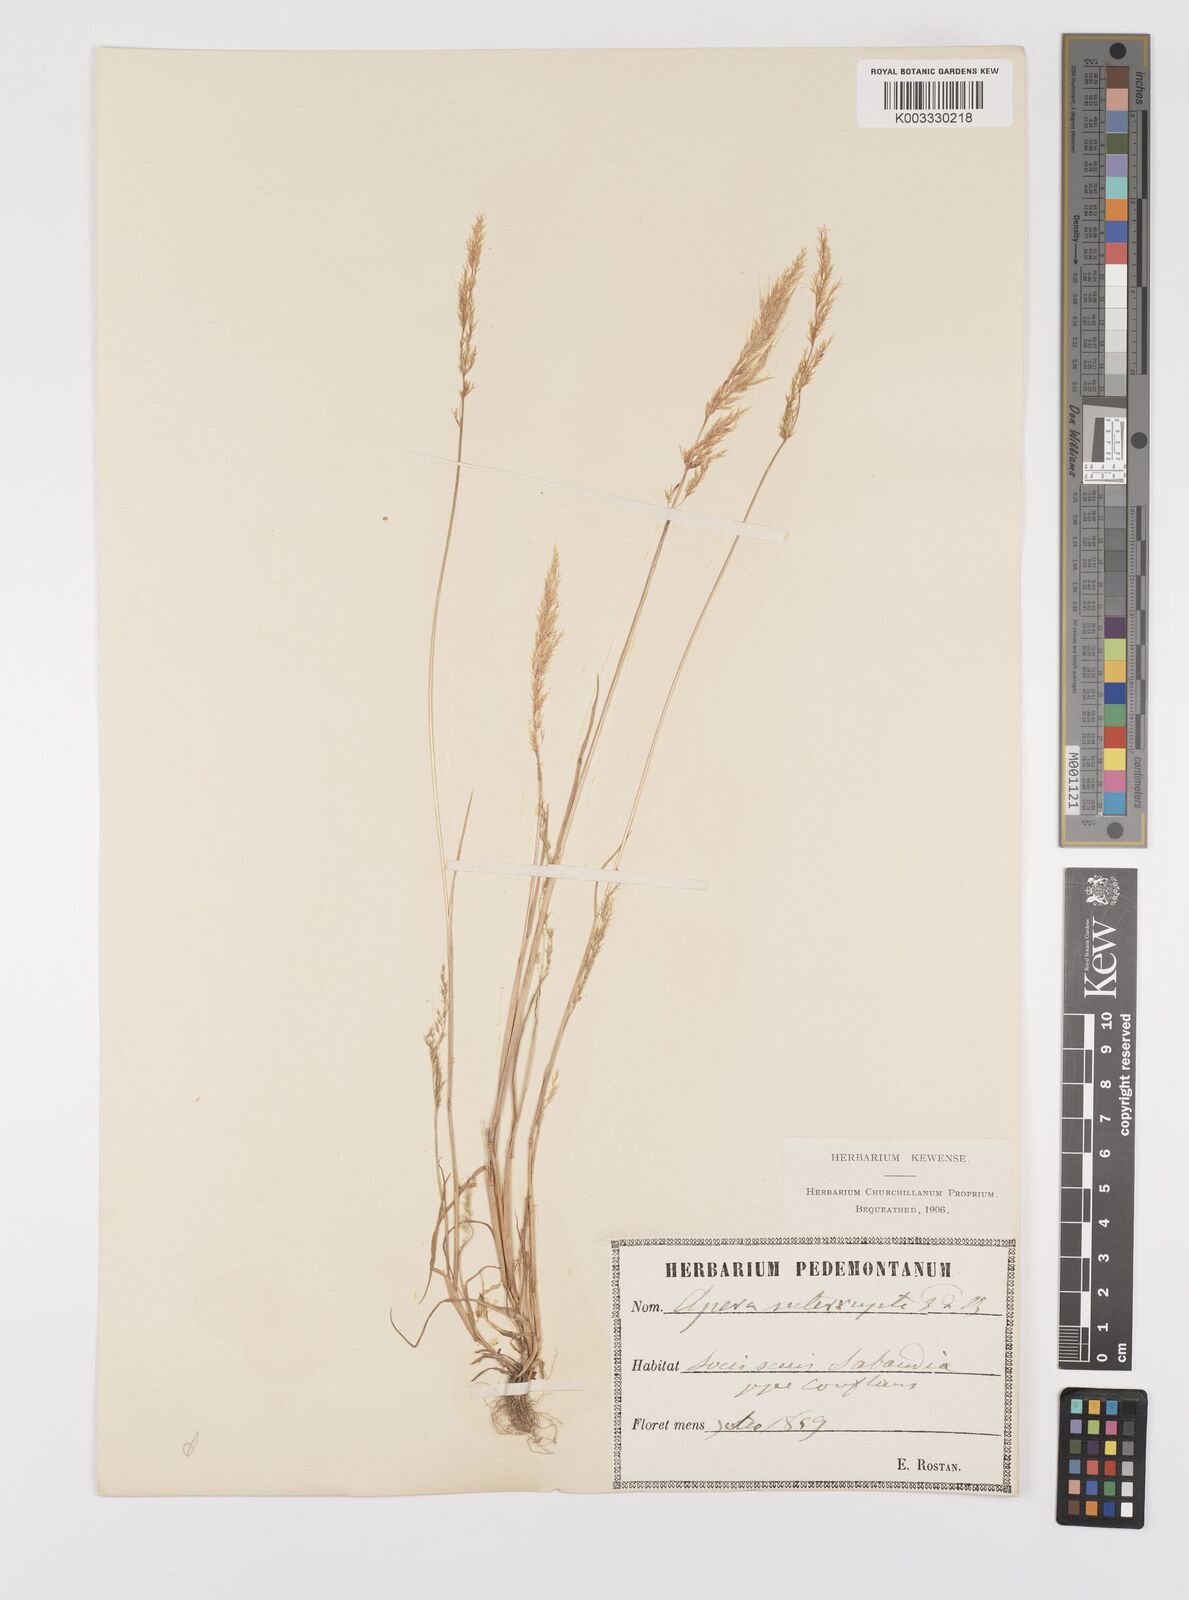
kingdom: Plantae
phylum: Tracheophyta
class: Liliopsida
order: Poales
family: Poaceae
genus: Apera
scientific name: Apera interrupta
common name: Dense silky-bent
